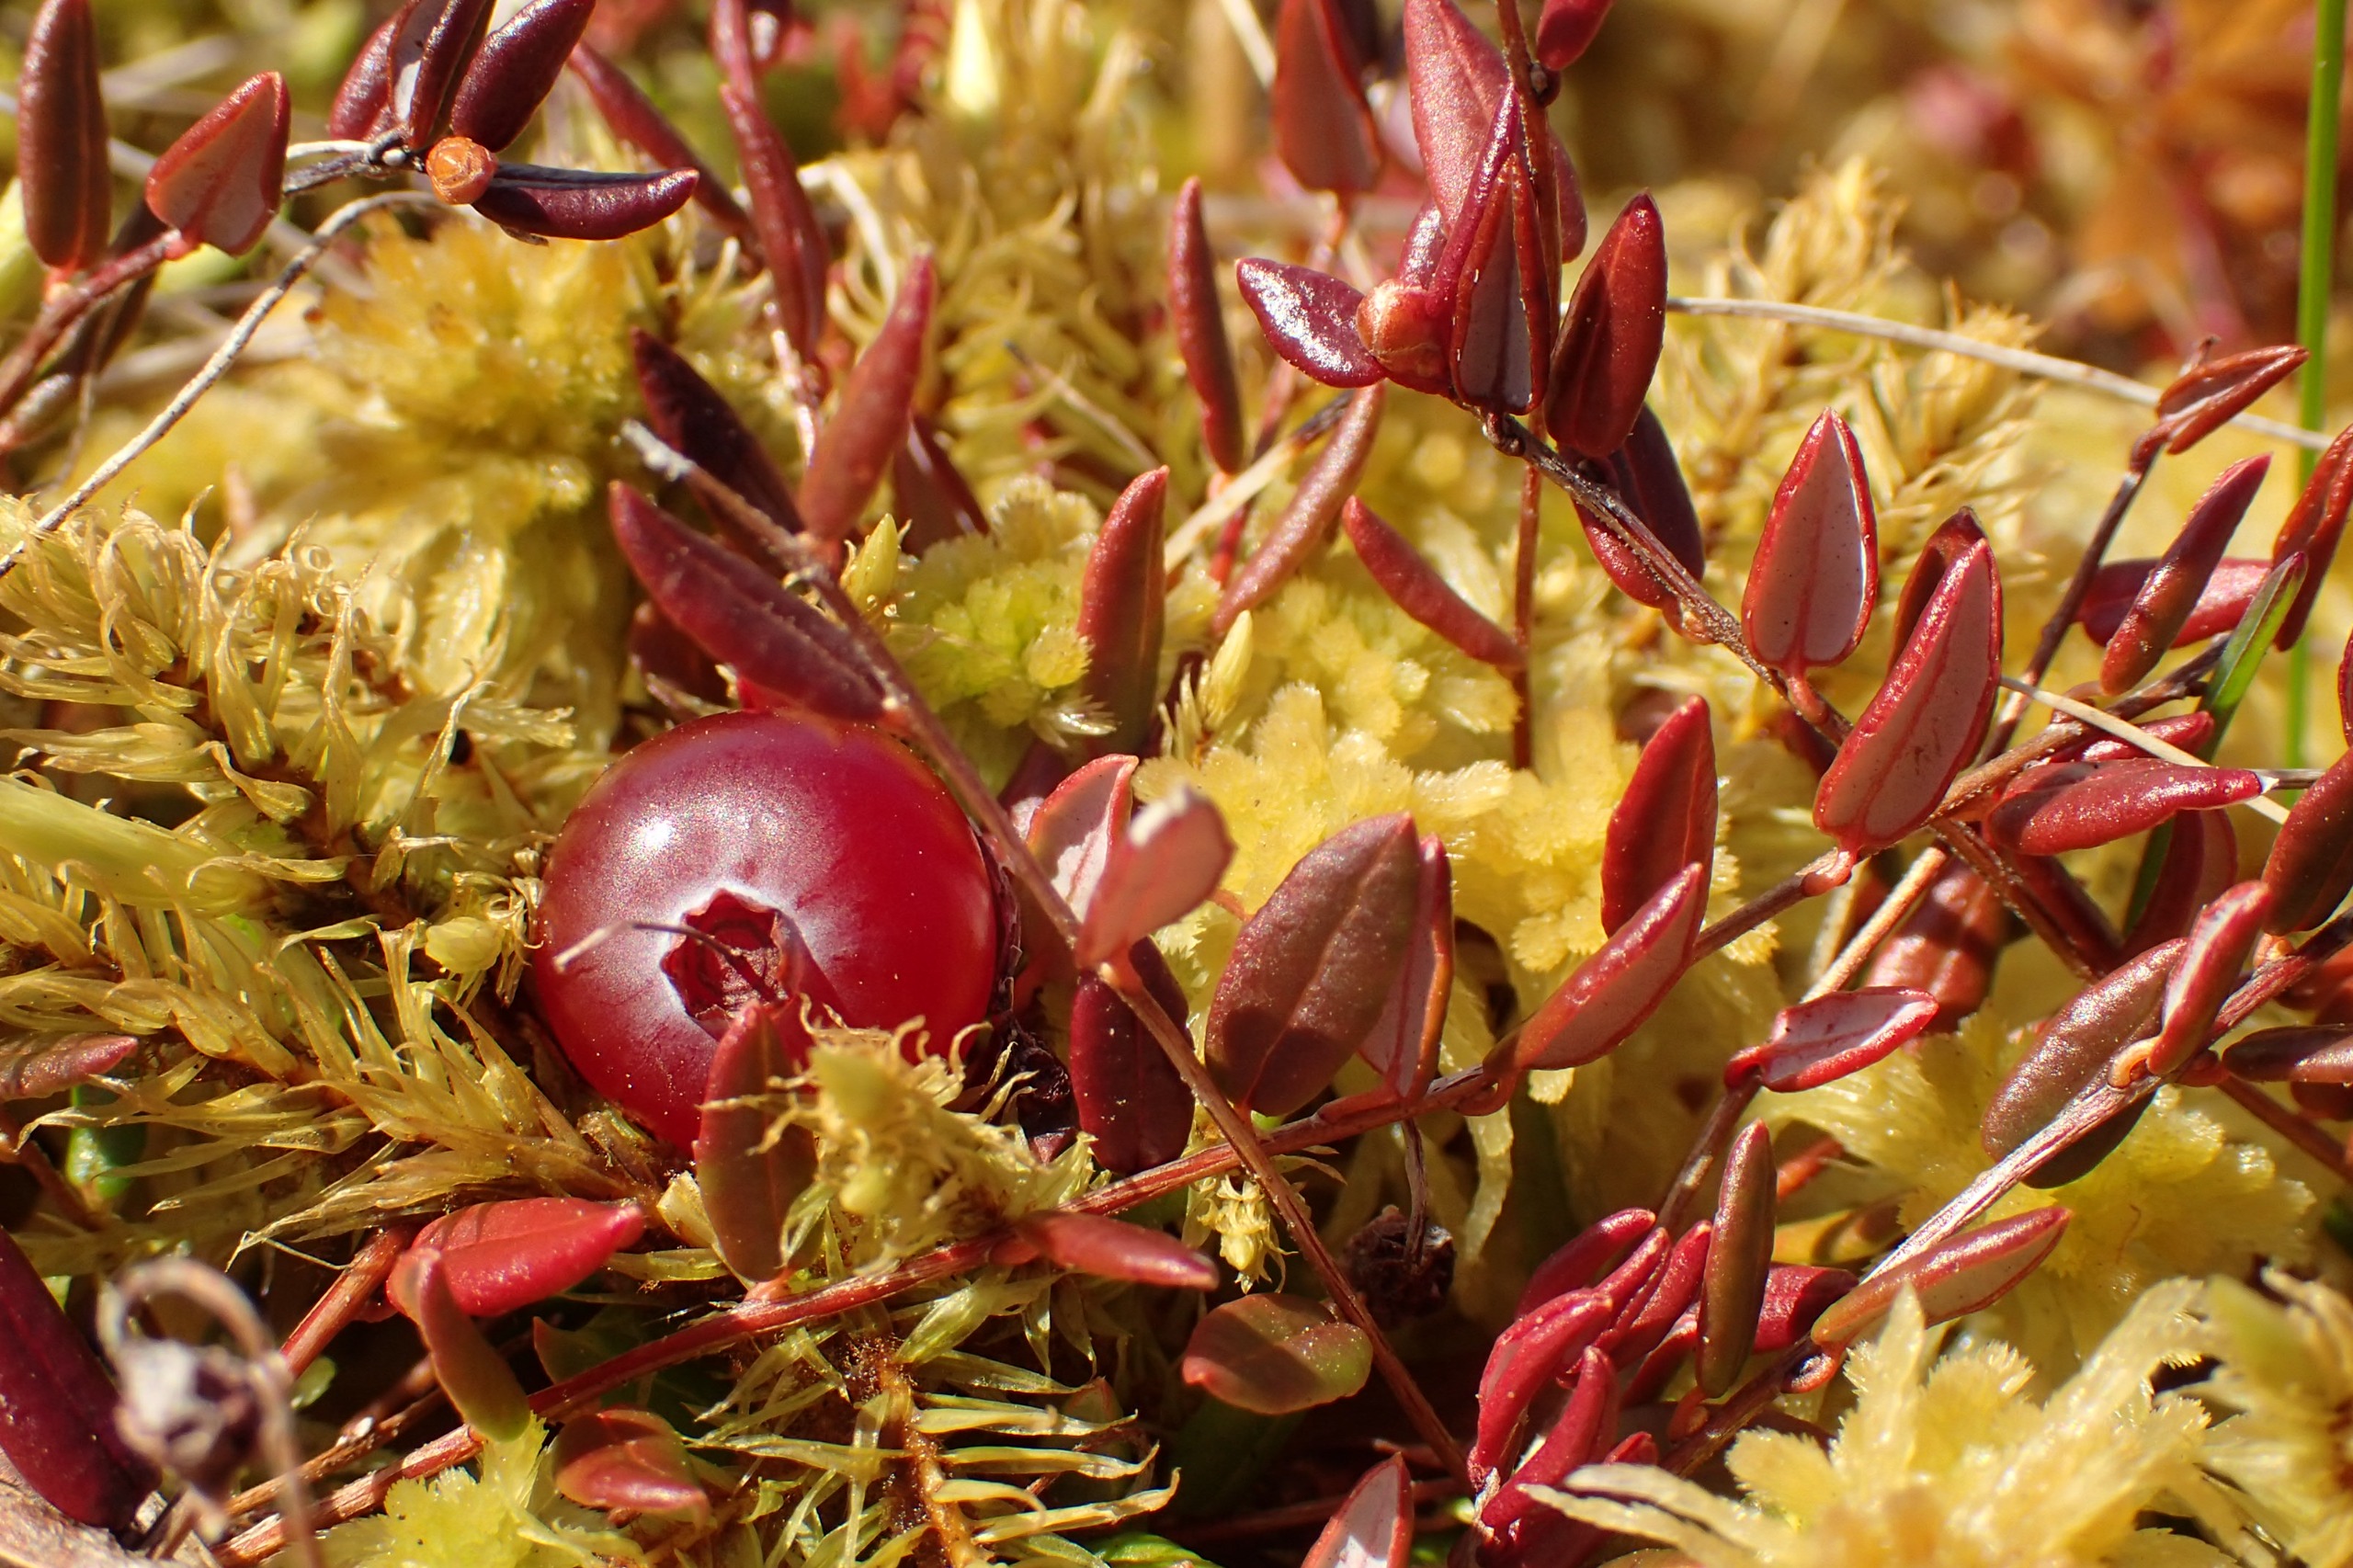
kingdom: Plantae
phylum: Tracheophyta
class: Magnoliopsida
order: Ericales
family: Ericaceae
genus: Vaccinium
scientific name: Vaccinium oxycoccos
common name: Tranebær
